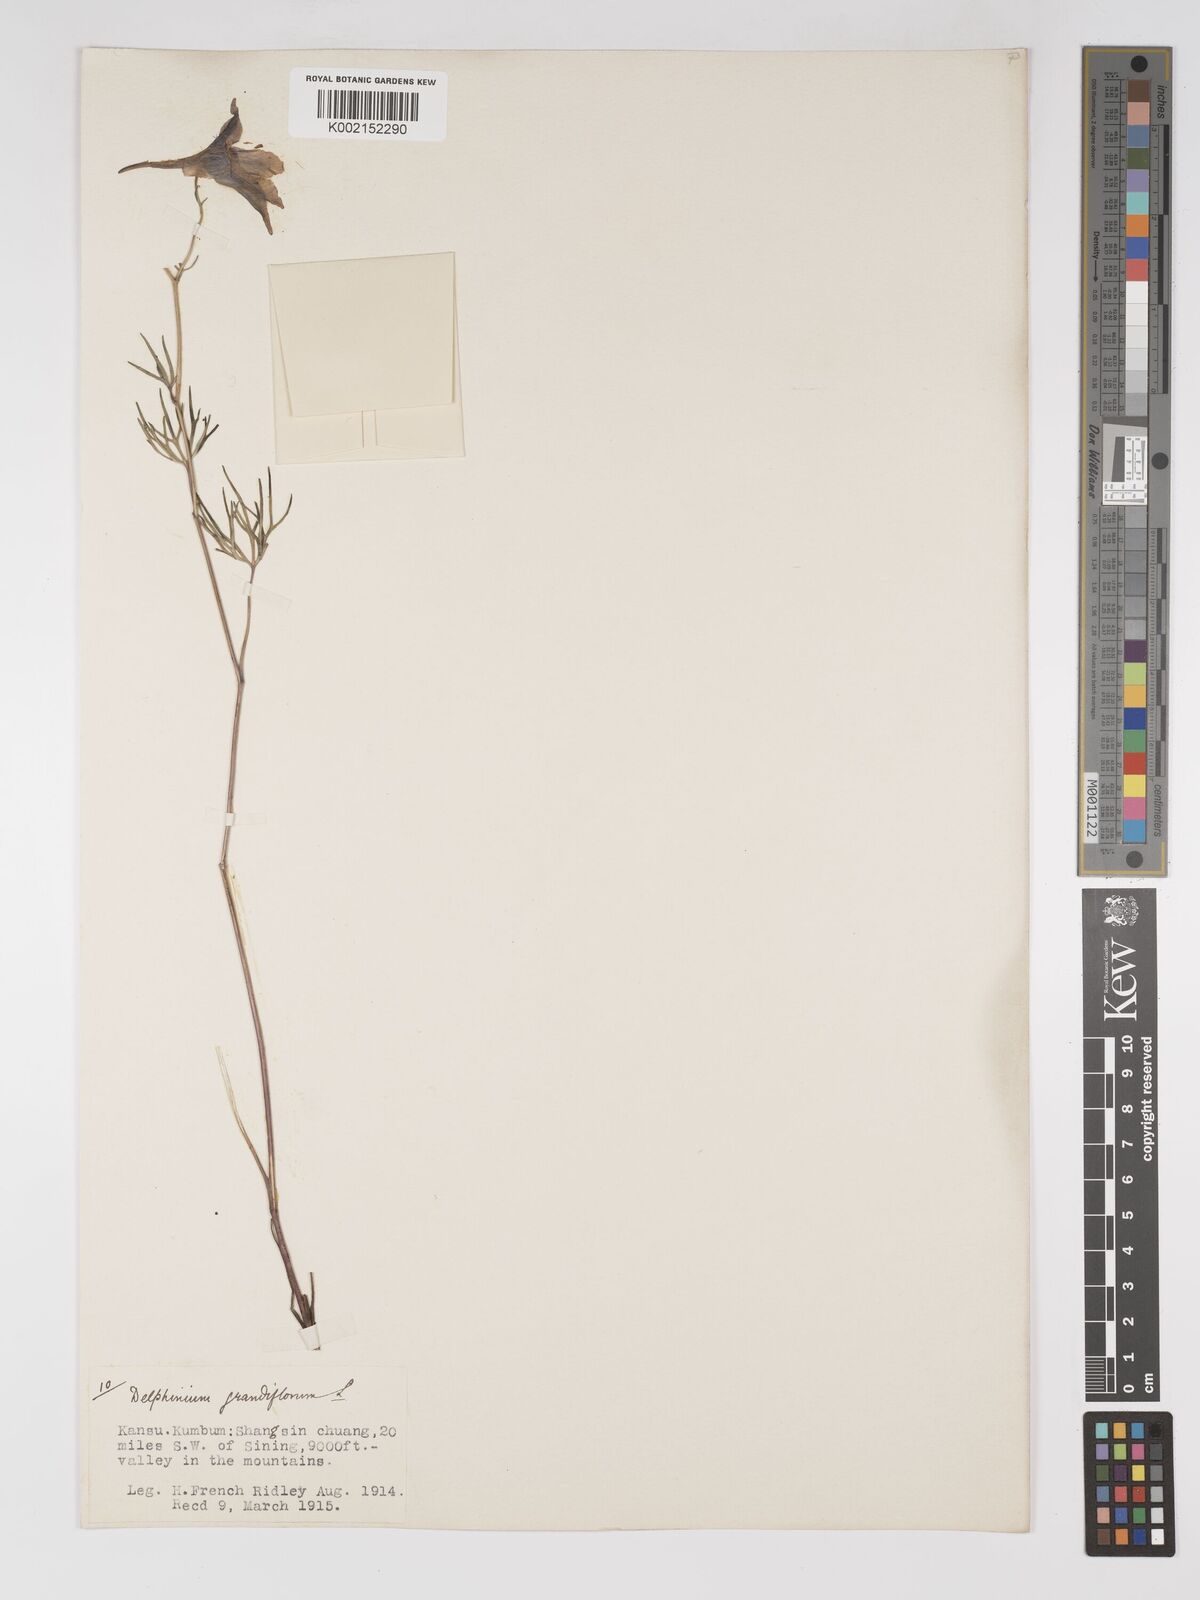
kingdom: Plantae
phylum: Tracheophyta
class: Magnoliopsida
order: Ranunculales
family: Ranunculaceae
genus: Delphinium
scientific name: Delphinium grandiflorum
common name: Siberian larkspur
